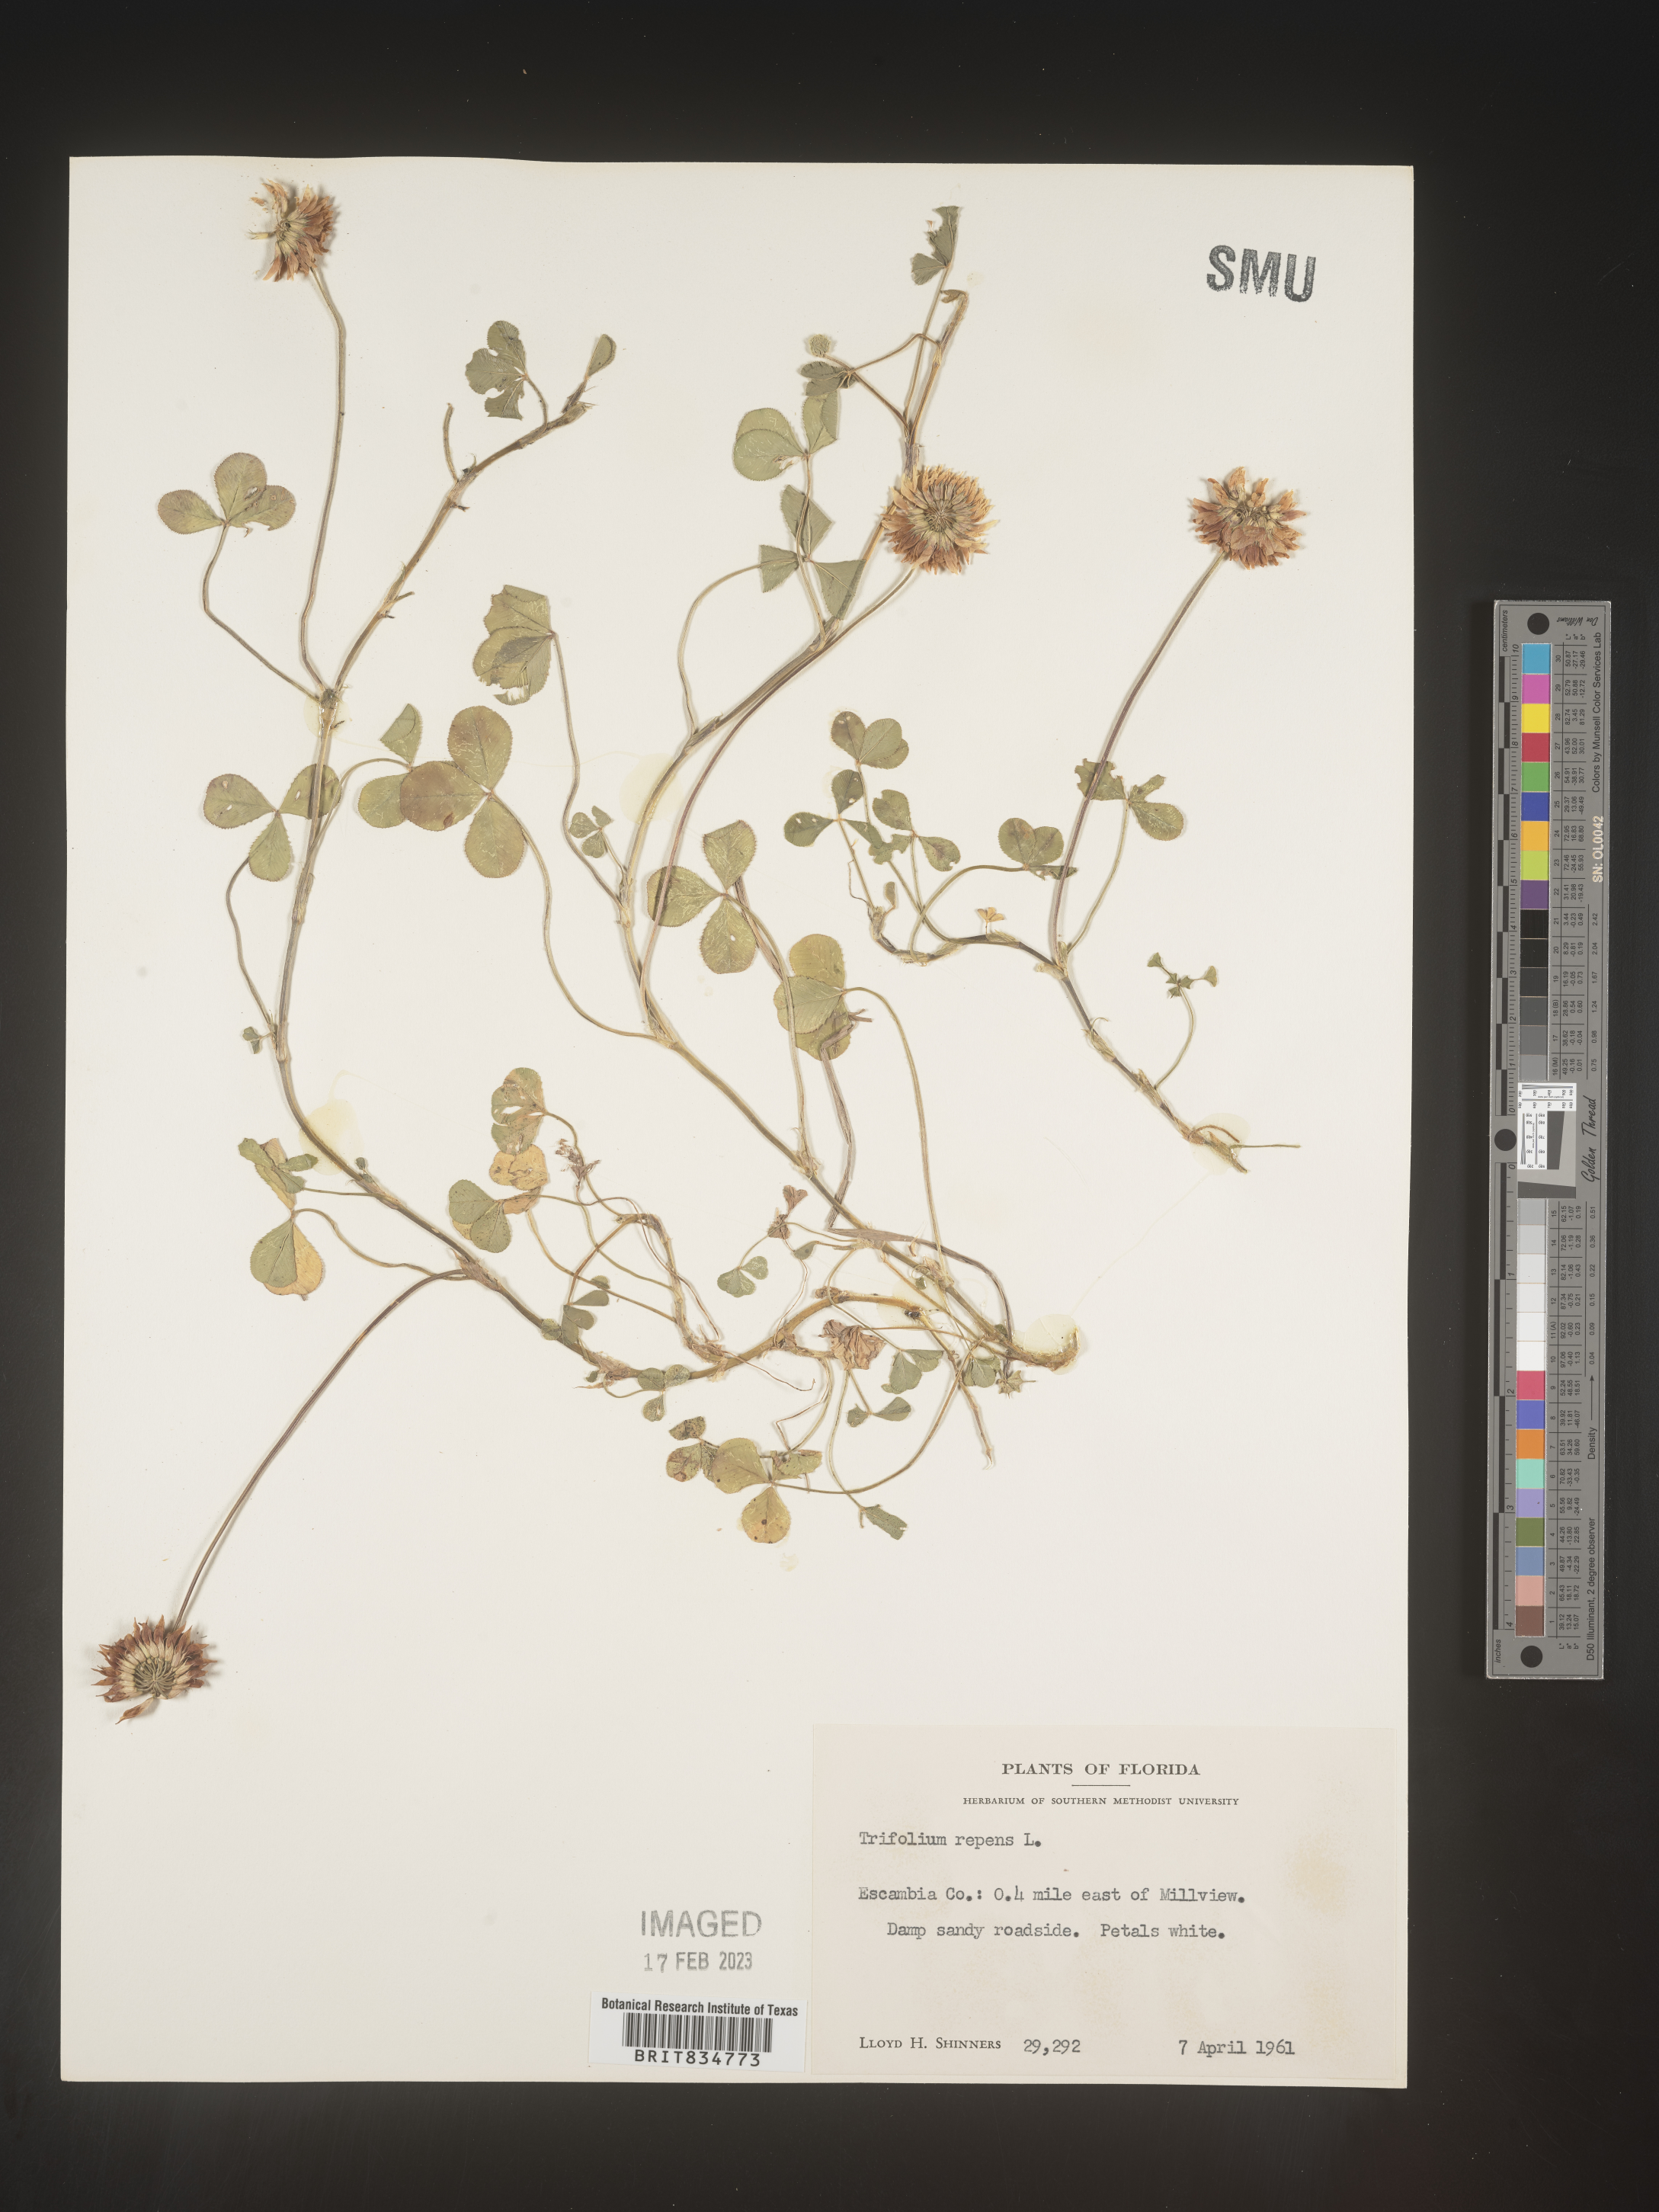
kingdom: Plantae
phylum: Tracheophyta
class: Magnoliopsida
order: Fabales
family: Fabaceae
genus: Trifolium
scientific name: Trifolium repens
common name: White clover
